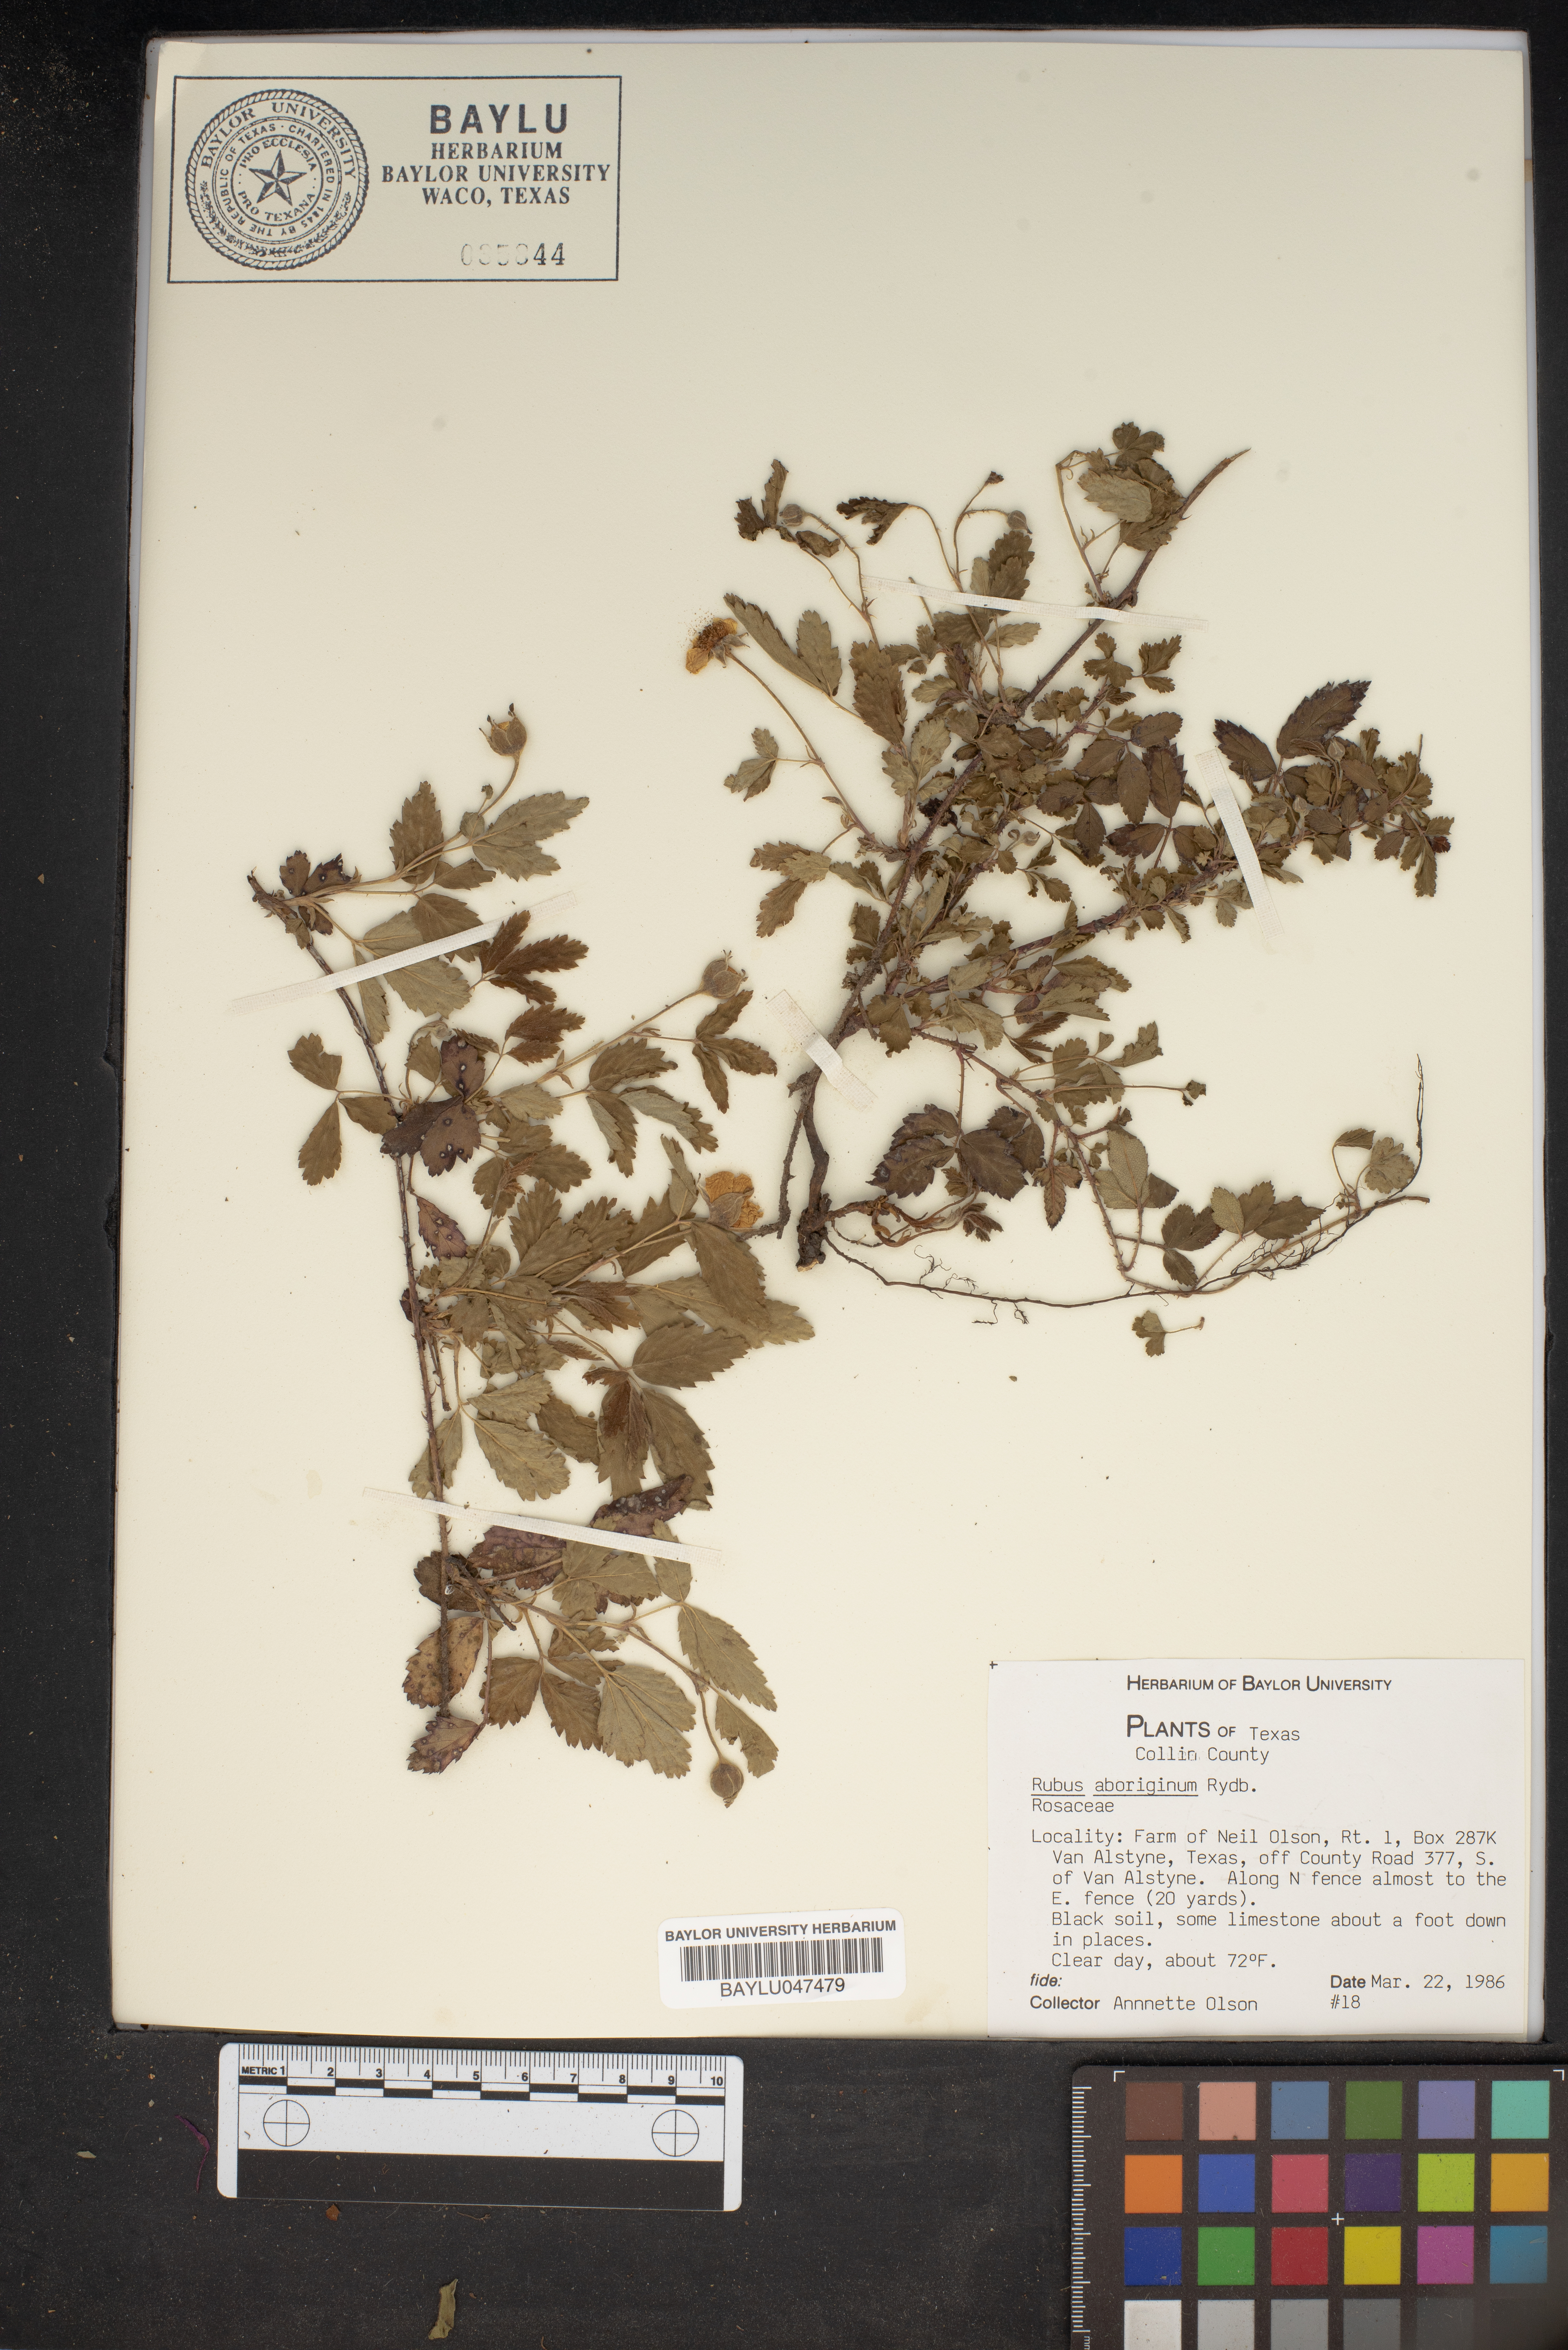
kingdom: Plantae
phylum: Tracheophyta
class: Magnoliopsida
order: Rosales
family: Rosaceae
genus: Rubus
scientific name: Rubus aboriginum
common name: Mayes dewberry
